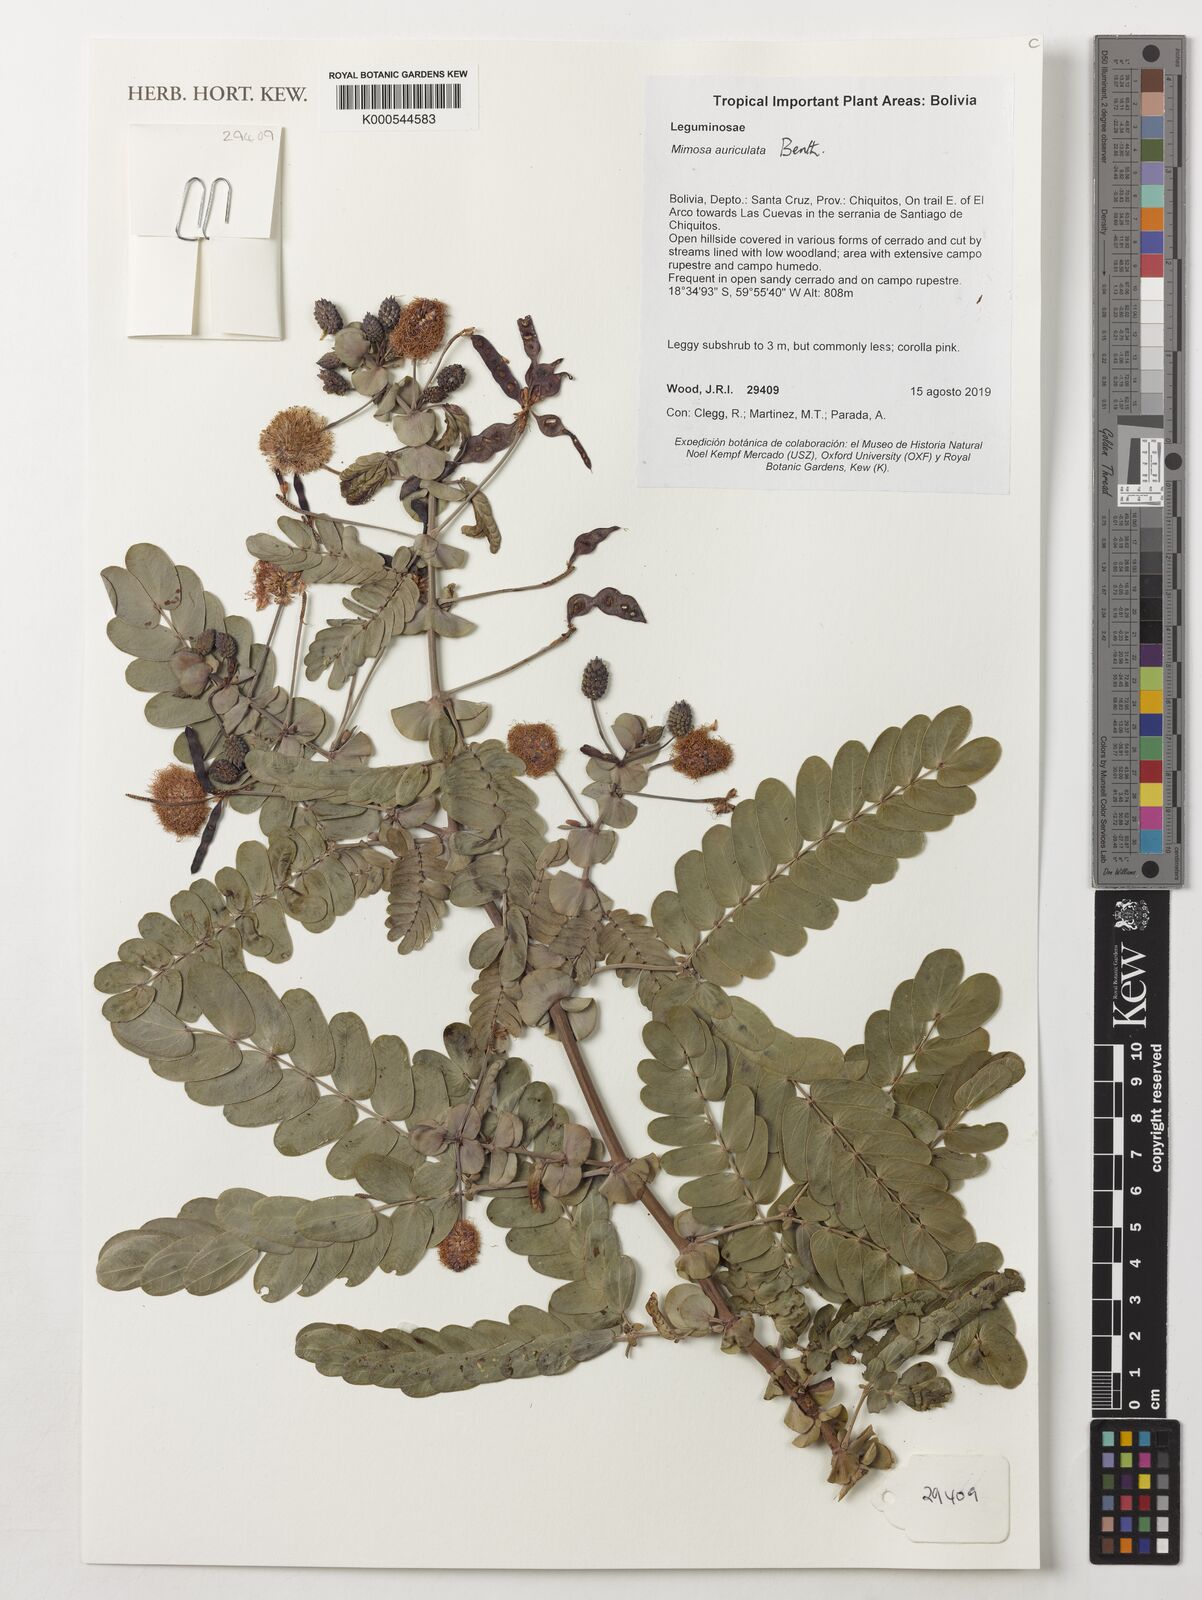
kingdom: Plantae
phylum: Tracheophyta
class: Magnoliopsida
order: Fabales
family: Fabaceae
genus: Mimosa
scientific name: Mimosa auriculata
